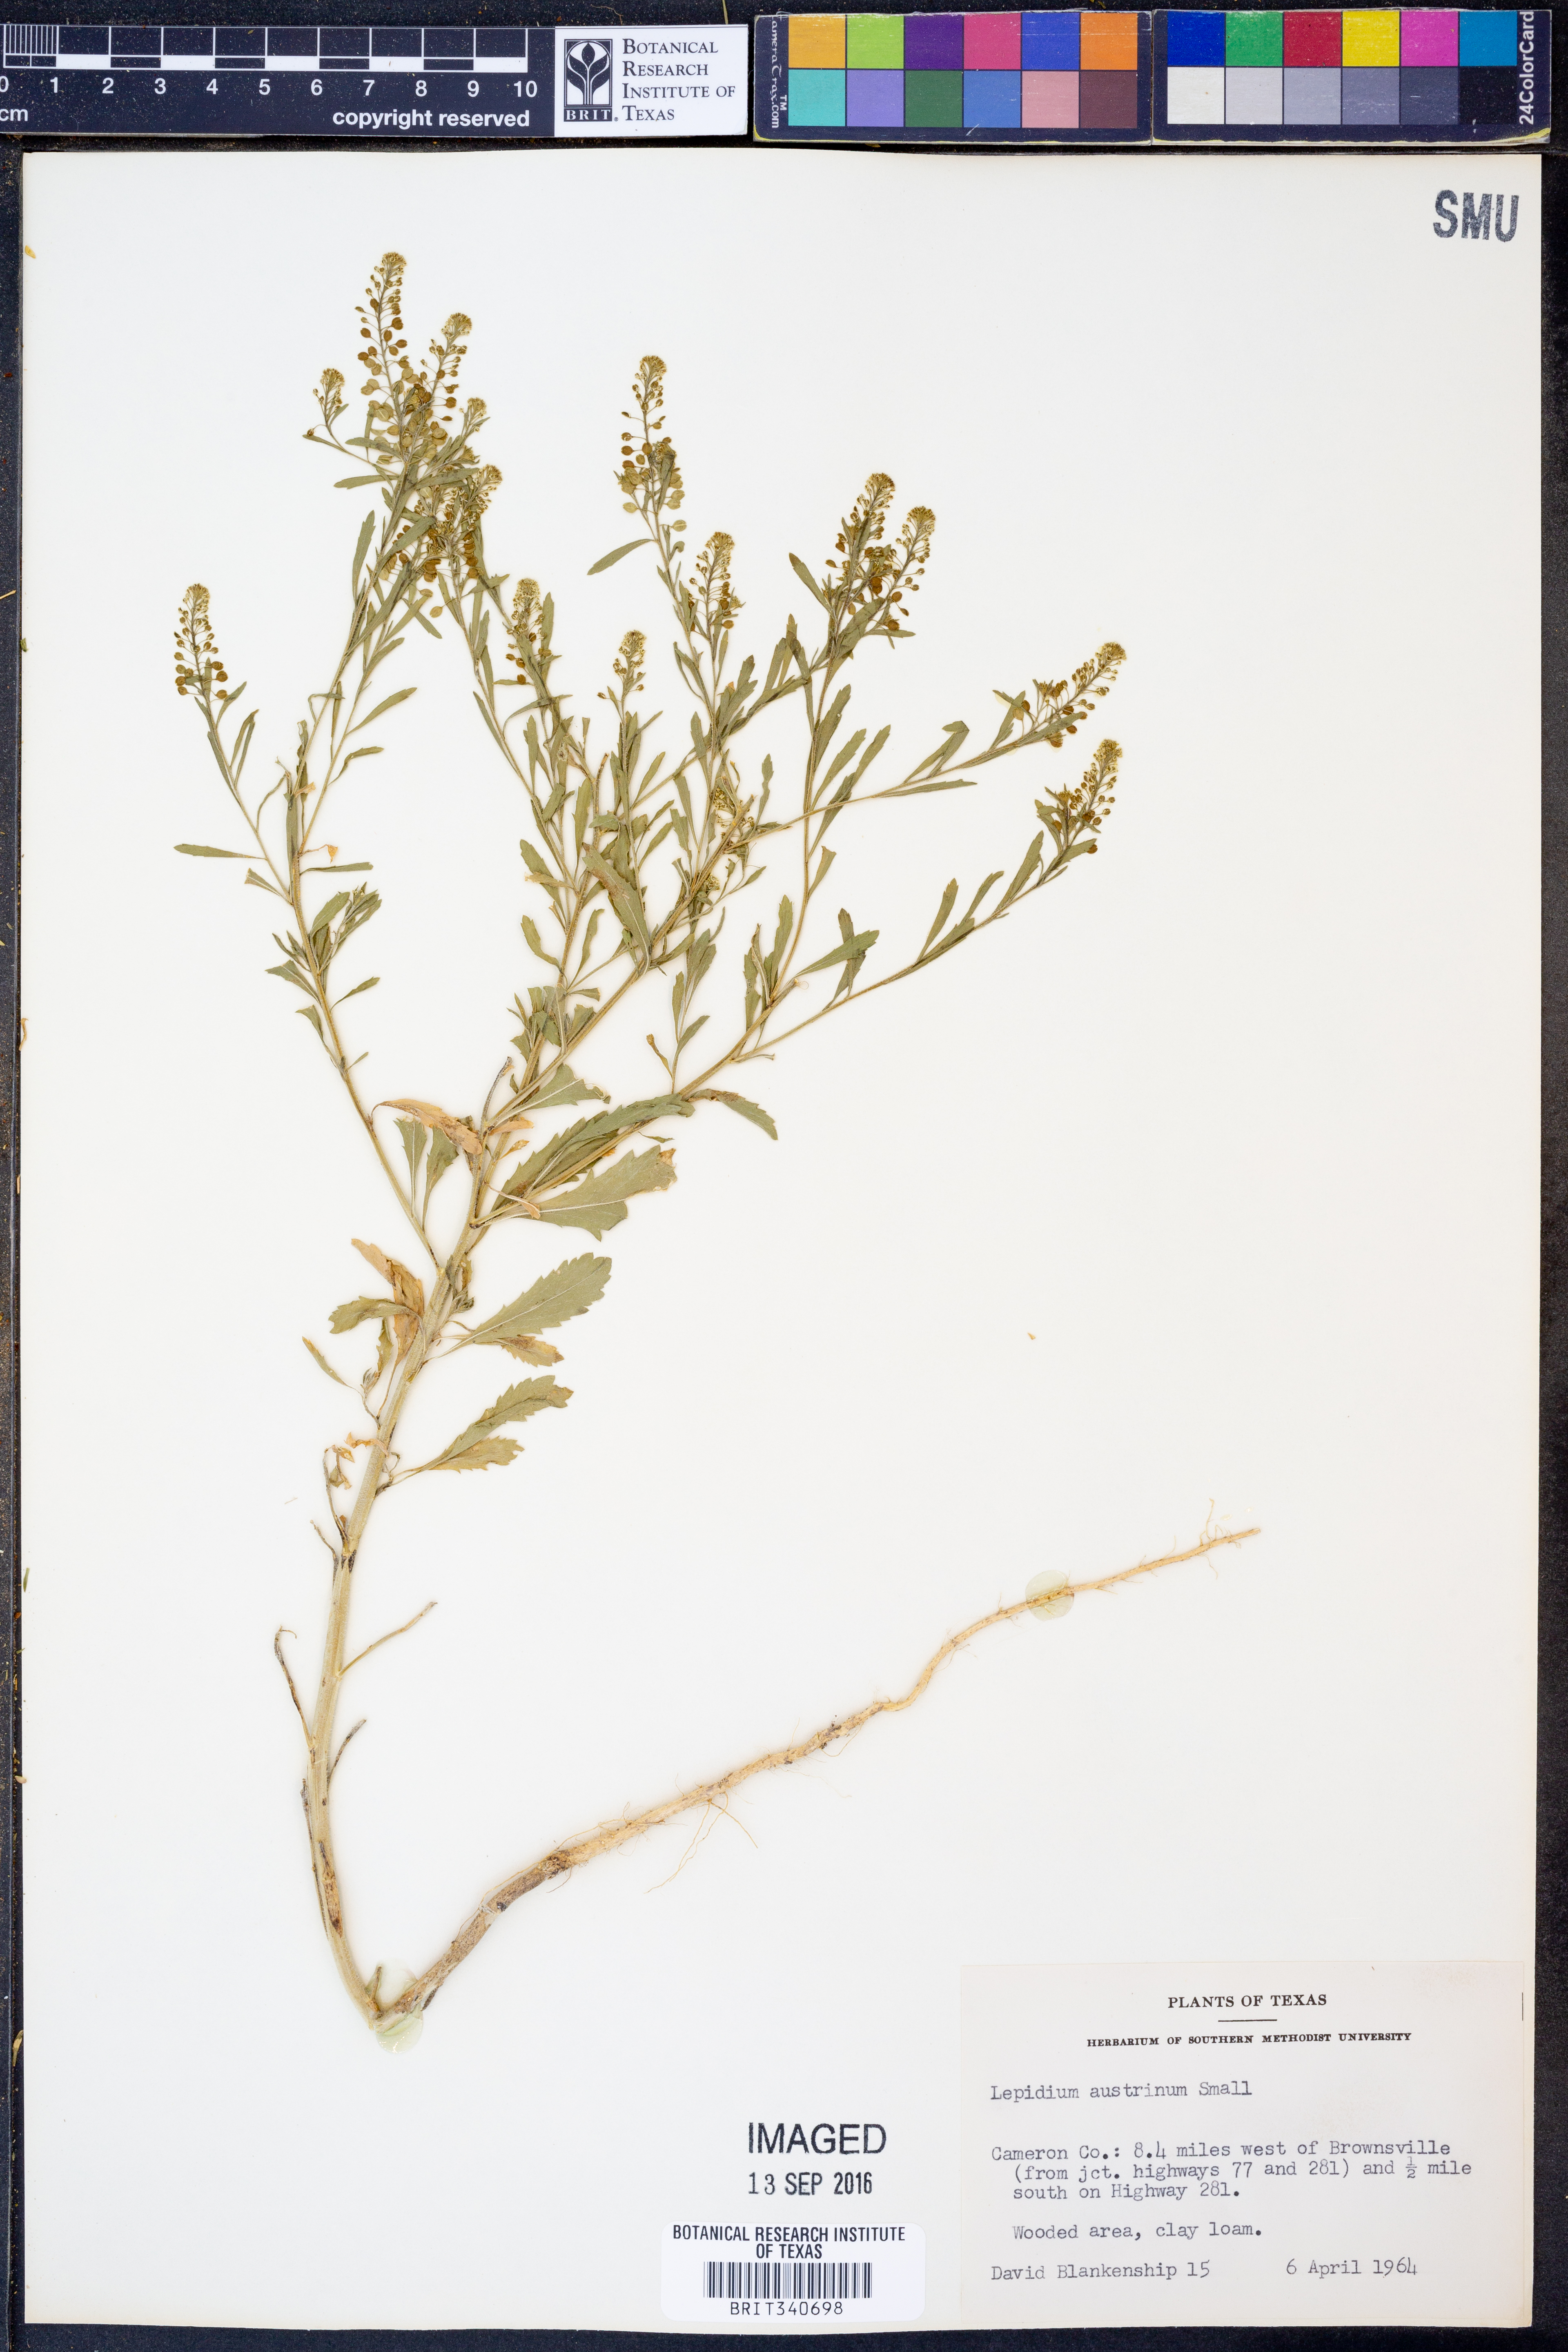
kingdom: Plantae
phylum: Tracheophyta
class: Magnoliopsida
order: Brassicales
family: Brassicaceae
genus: Lepidium
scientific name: Lepidium austrinum
